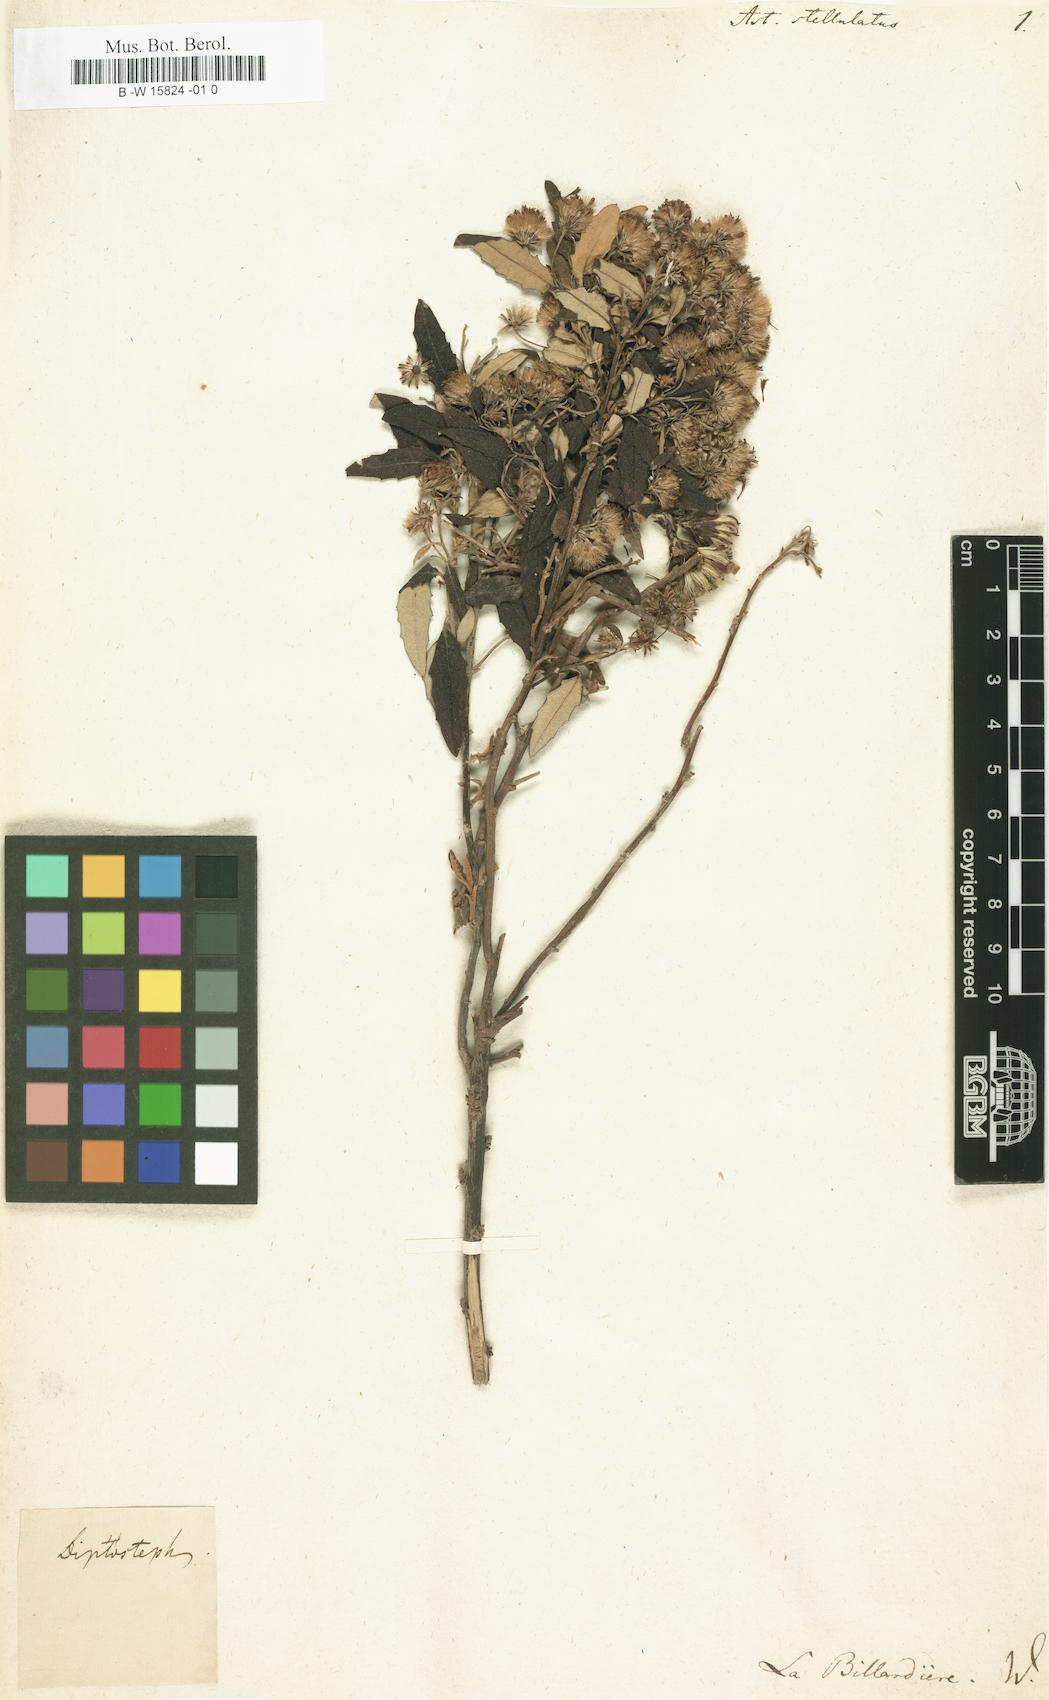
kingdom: Plantae
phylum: Tracheophyta
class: Magnoliopsida
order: Asterales
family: Asteraceae
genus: Olearia
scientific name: Olearia stellulata
